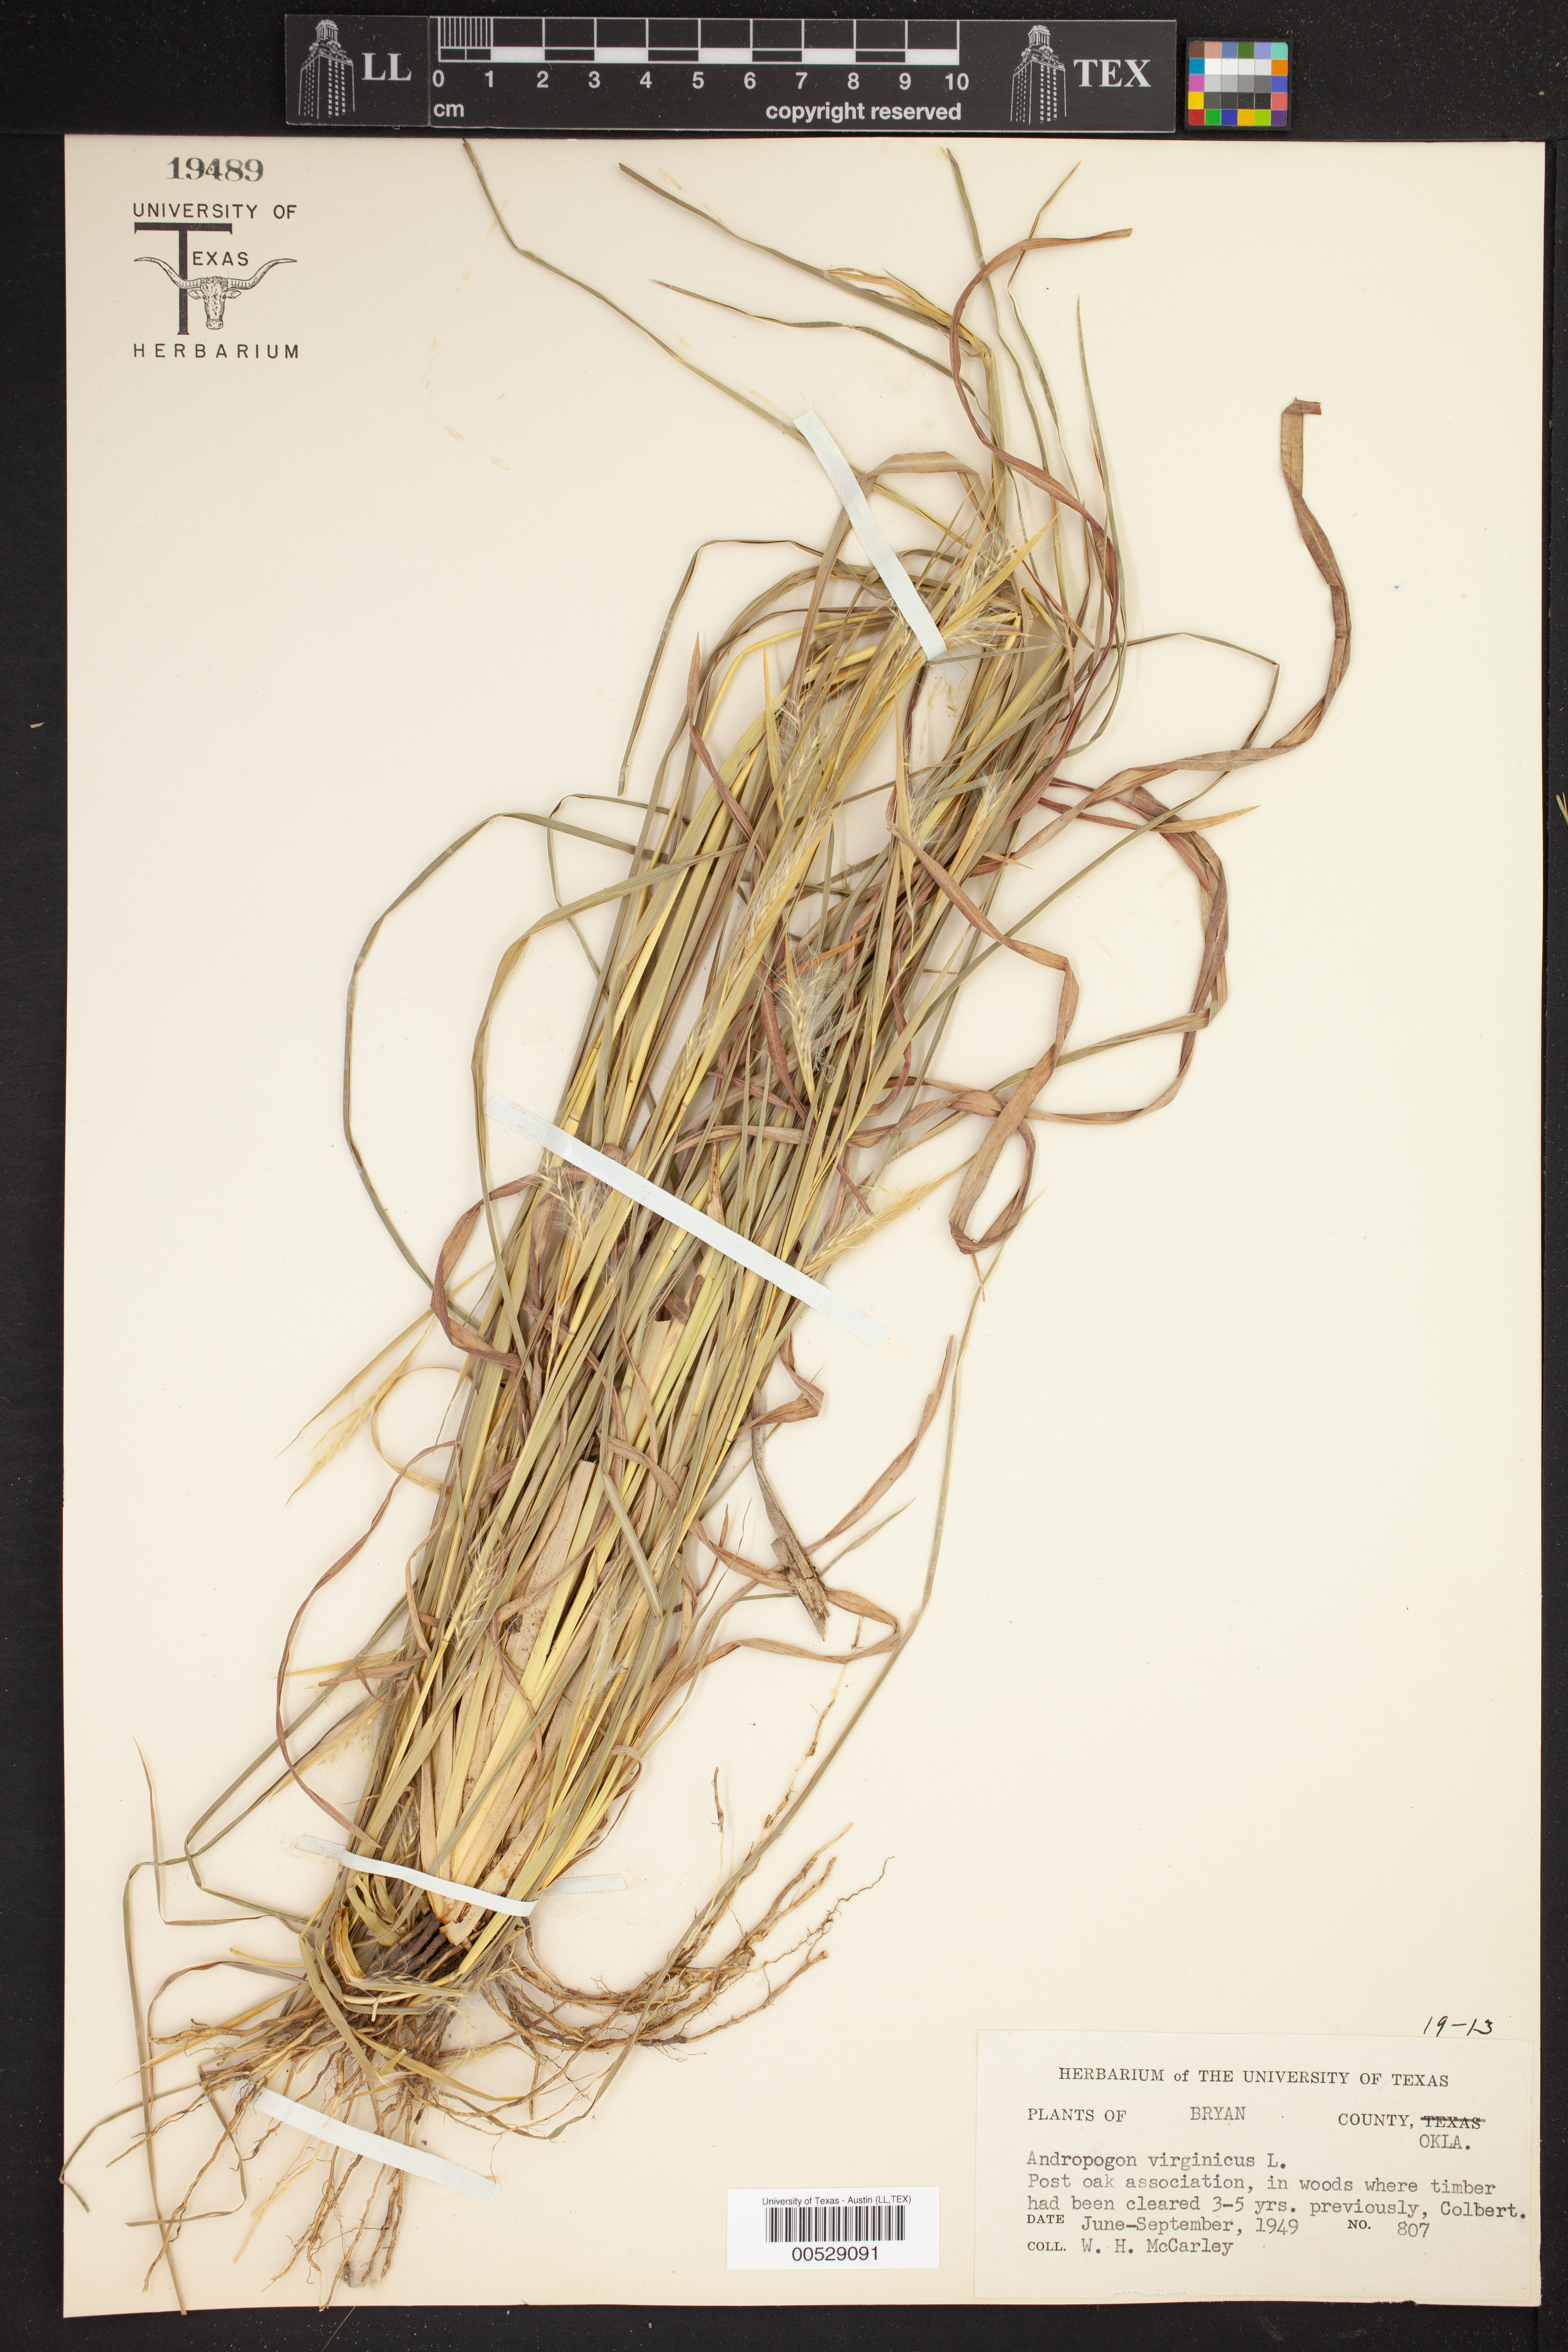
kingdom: Plantae
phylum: Tracheophyta
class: Liliopsida
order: Poales
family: Poaceae
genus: Andropogon
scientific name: Andropogon virginicus
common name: Broomsedge bluestem
